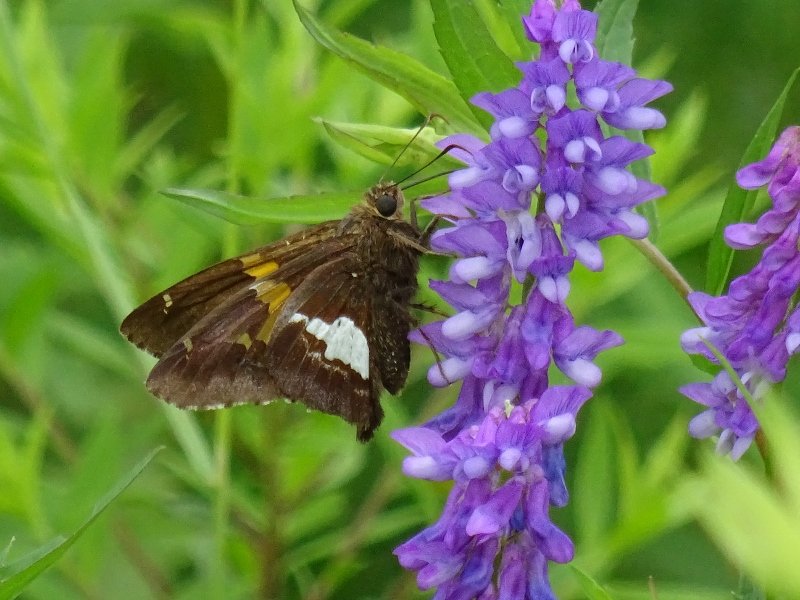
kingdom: Animalia
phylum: Arthropoda
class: Insecta
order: Lepidoptera
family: Hesperiidae
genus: Epargyreus
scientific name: Epargyreus clarus
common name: Silver-spotted Skipper
